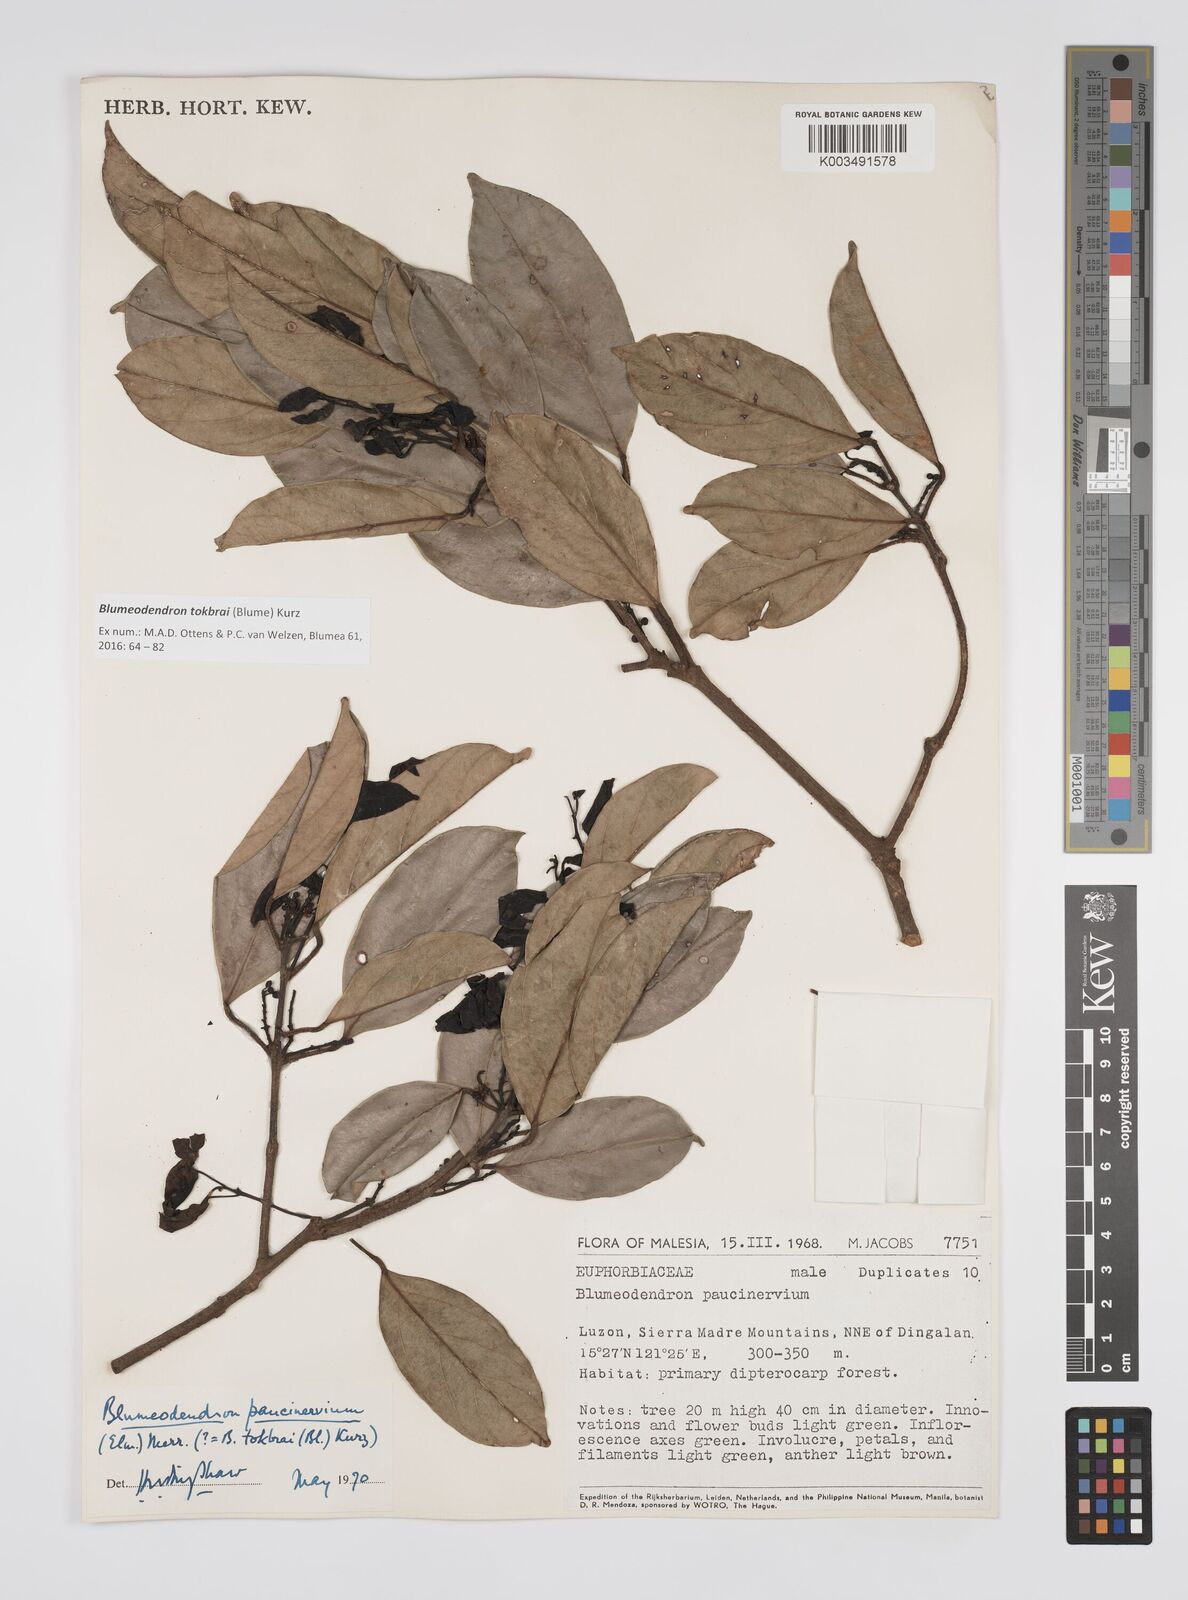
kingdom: Plantae
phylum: Tracheophyta
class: Magnoliopsida
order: Malpighiales
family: Euphorbiaceae
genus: Blumeodendron
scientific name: Blumeodendron tokbrai
